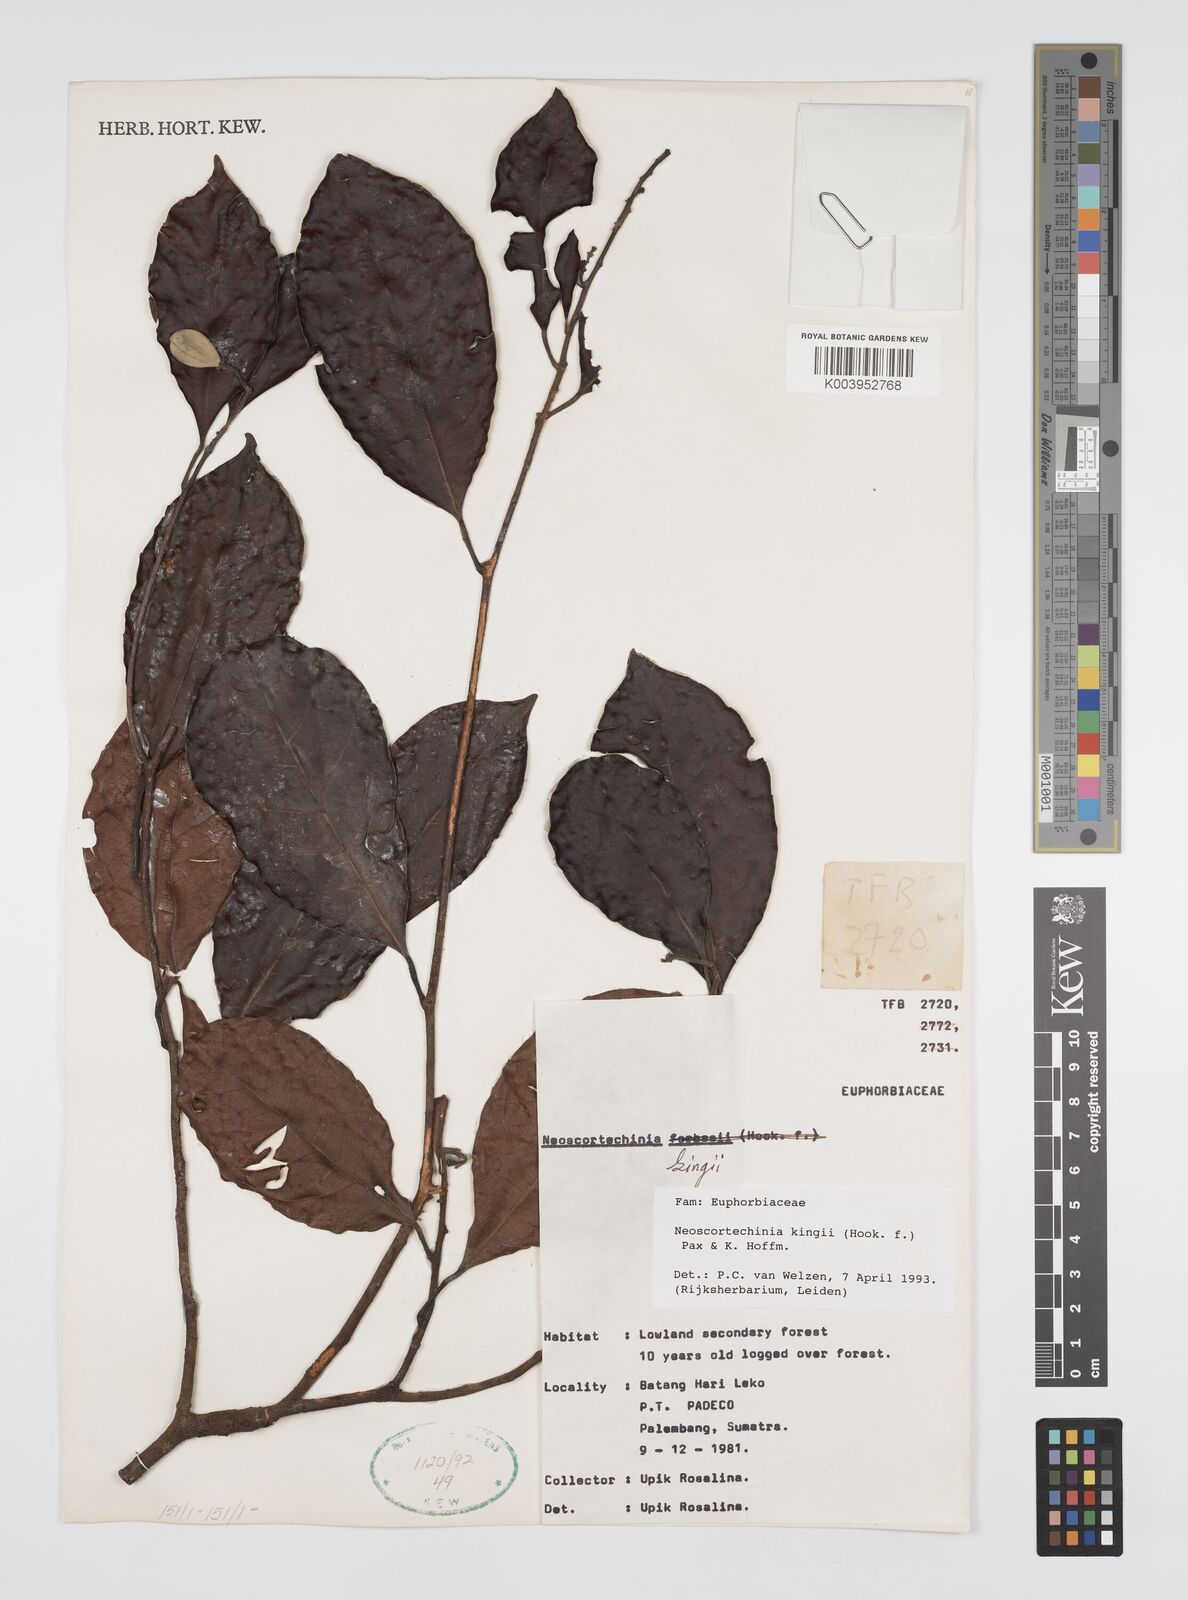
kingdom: Plantae
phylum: Tracheophyta
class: Magnoliopsida
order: Malpighiales
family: Euphorbiaceae
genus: Neoscortechinia
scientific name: Neoscortechinia kingii
